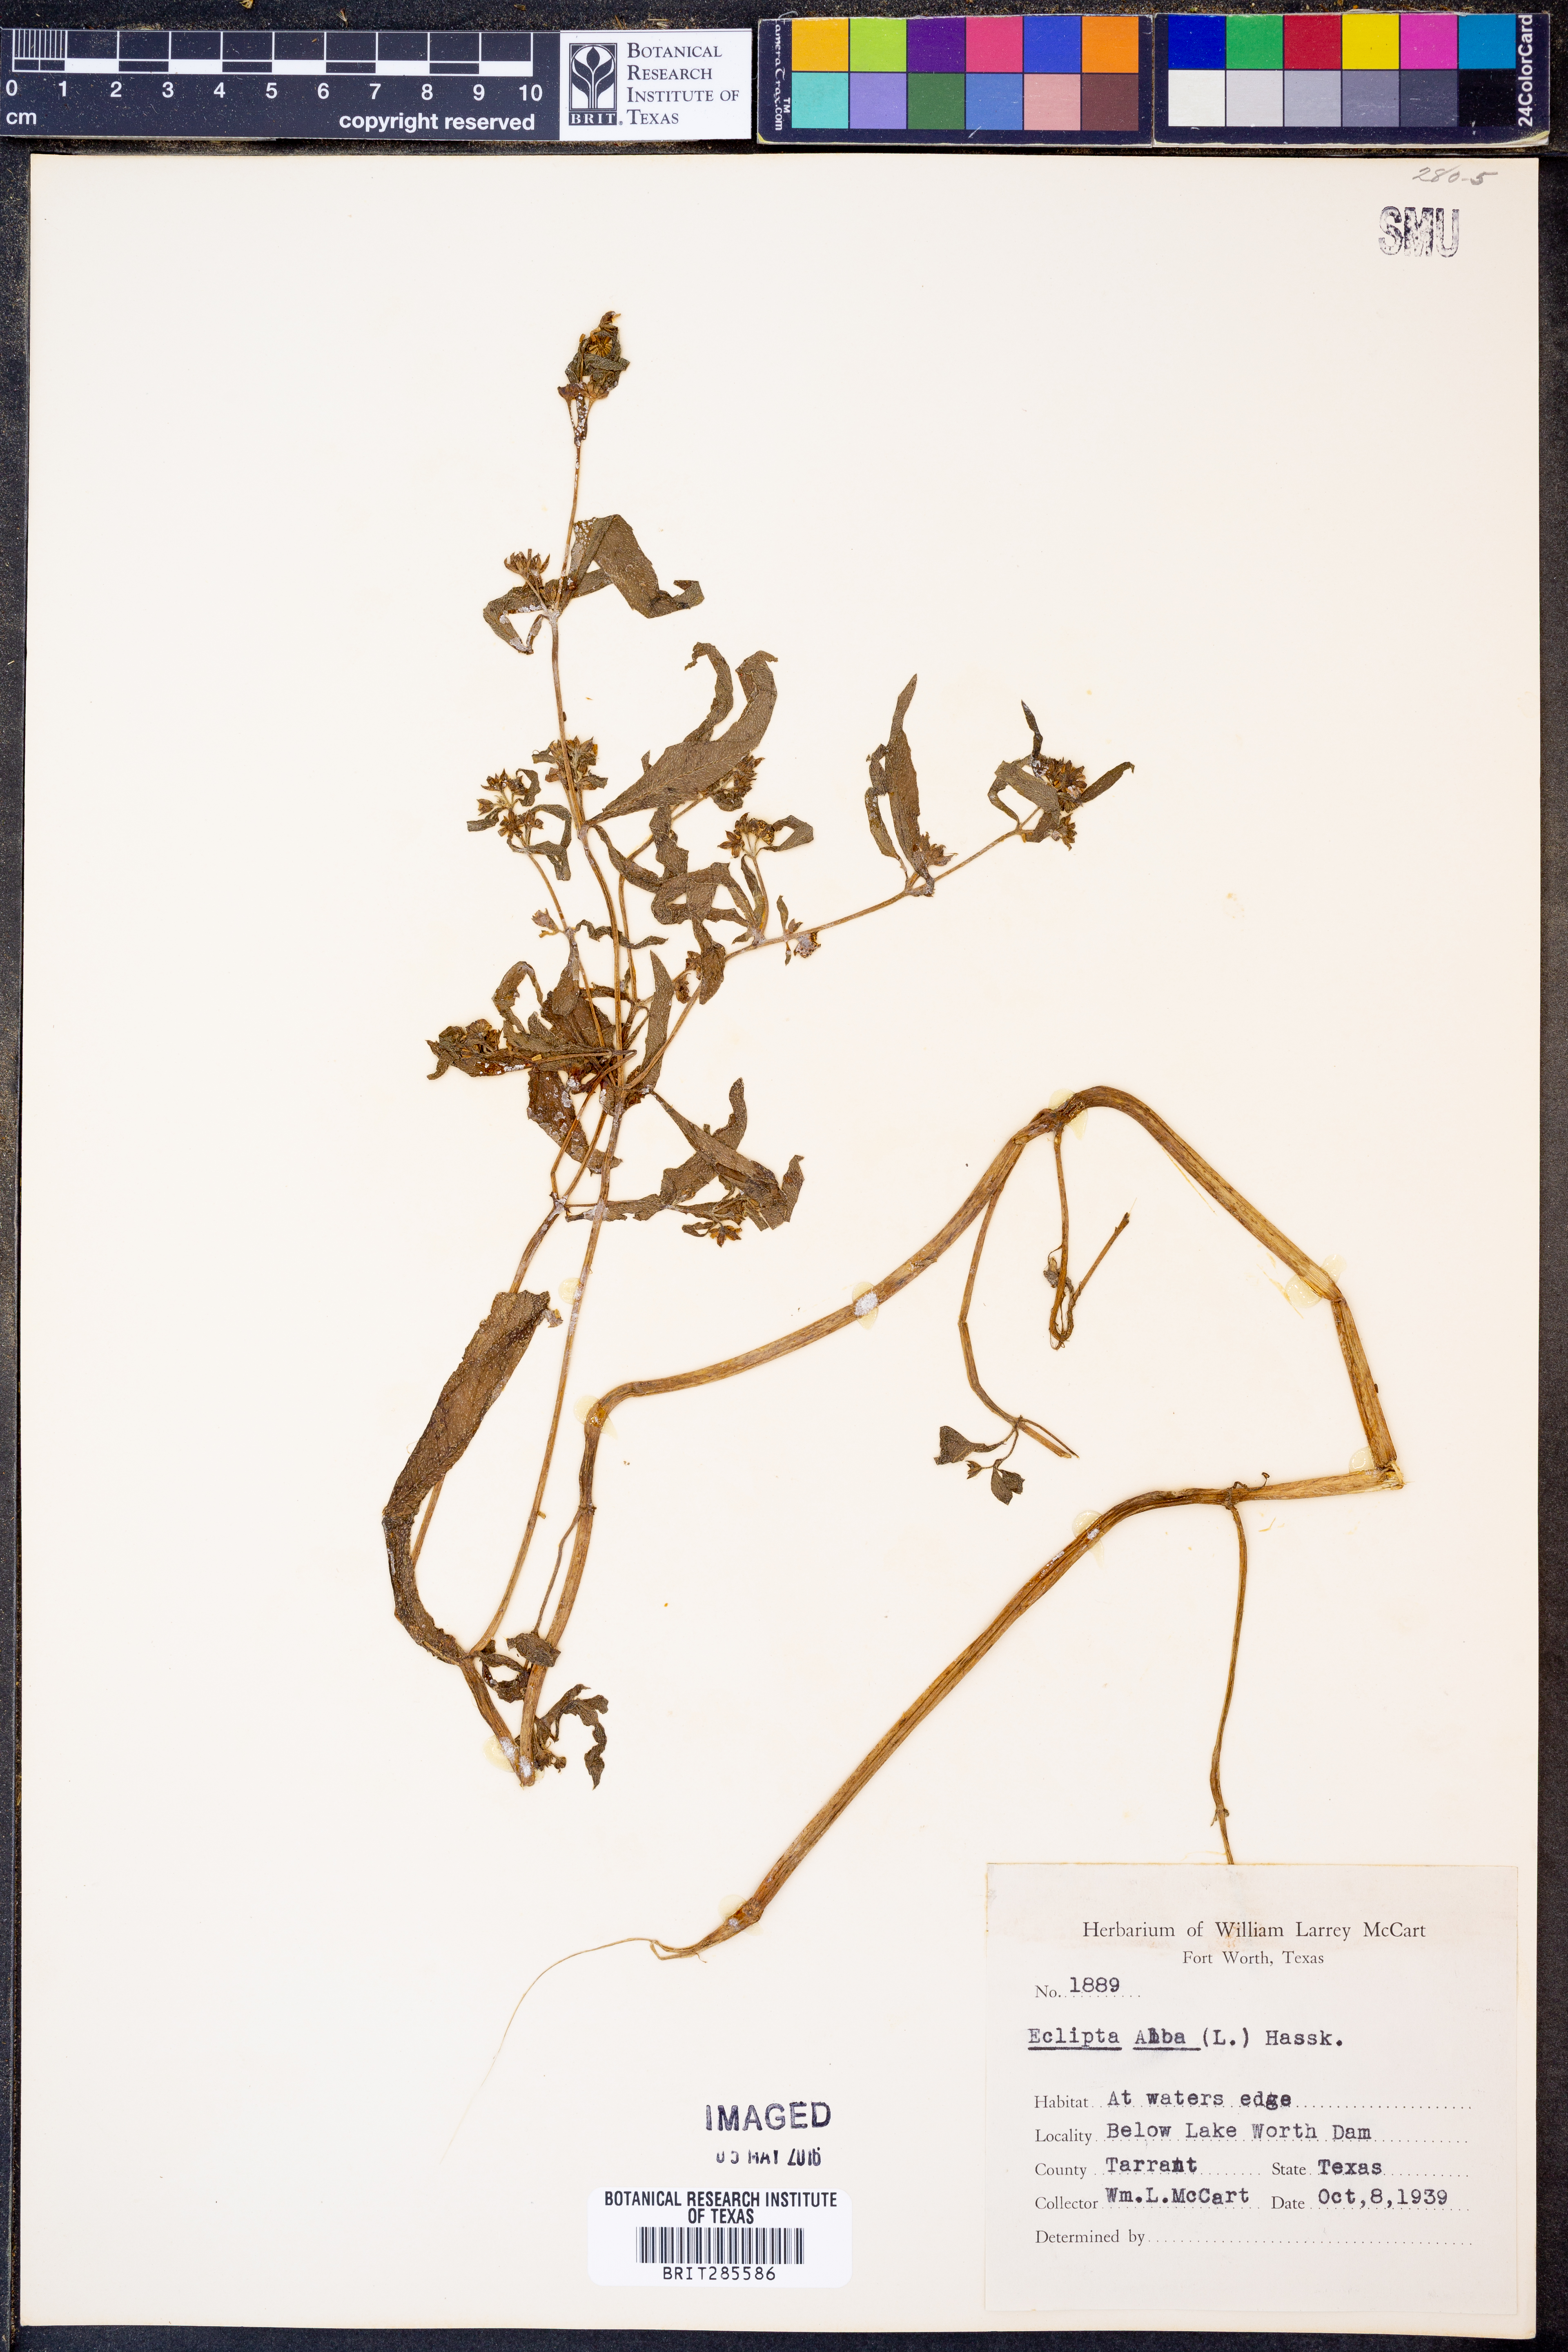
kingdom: Plantae
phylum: Tracheophyta
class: Magnoliopsida
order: Asterales
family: Asteraceae
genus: Eclipta
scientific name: Eclipta alba
